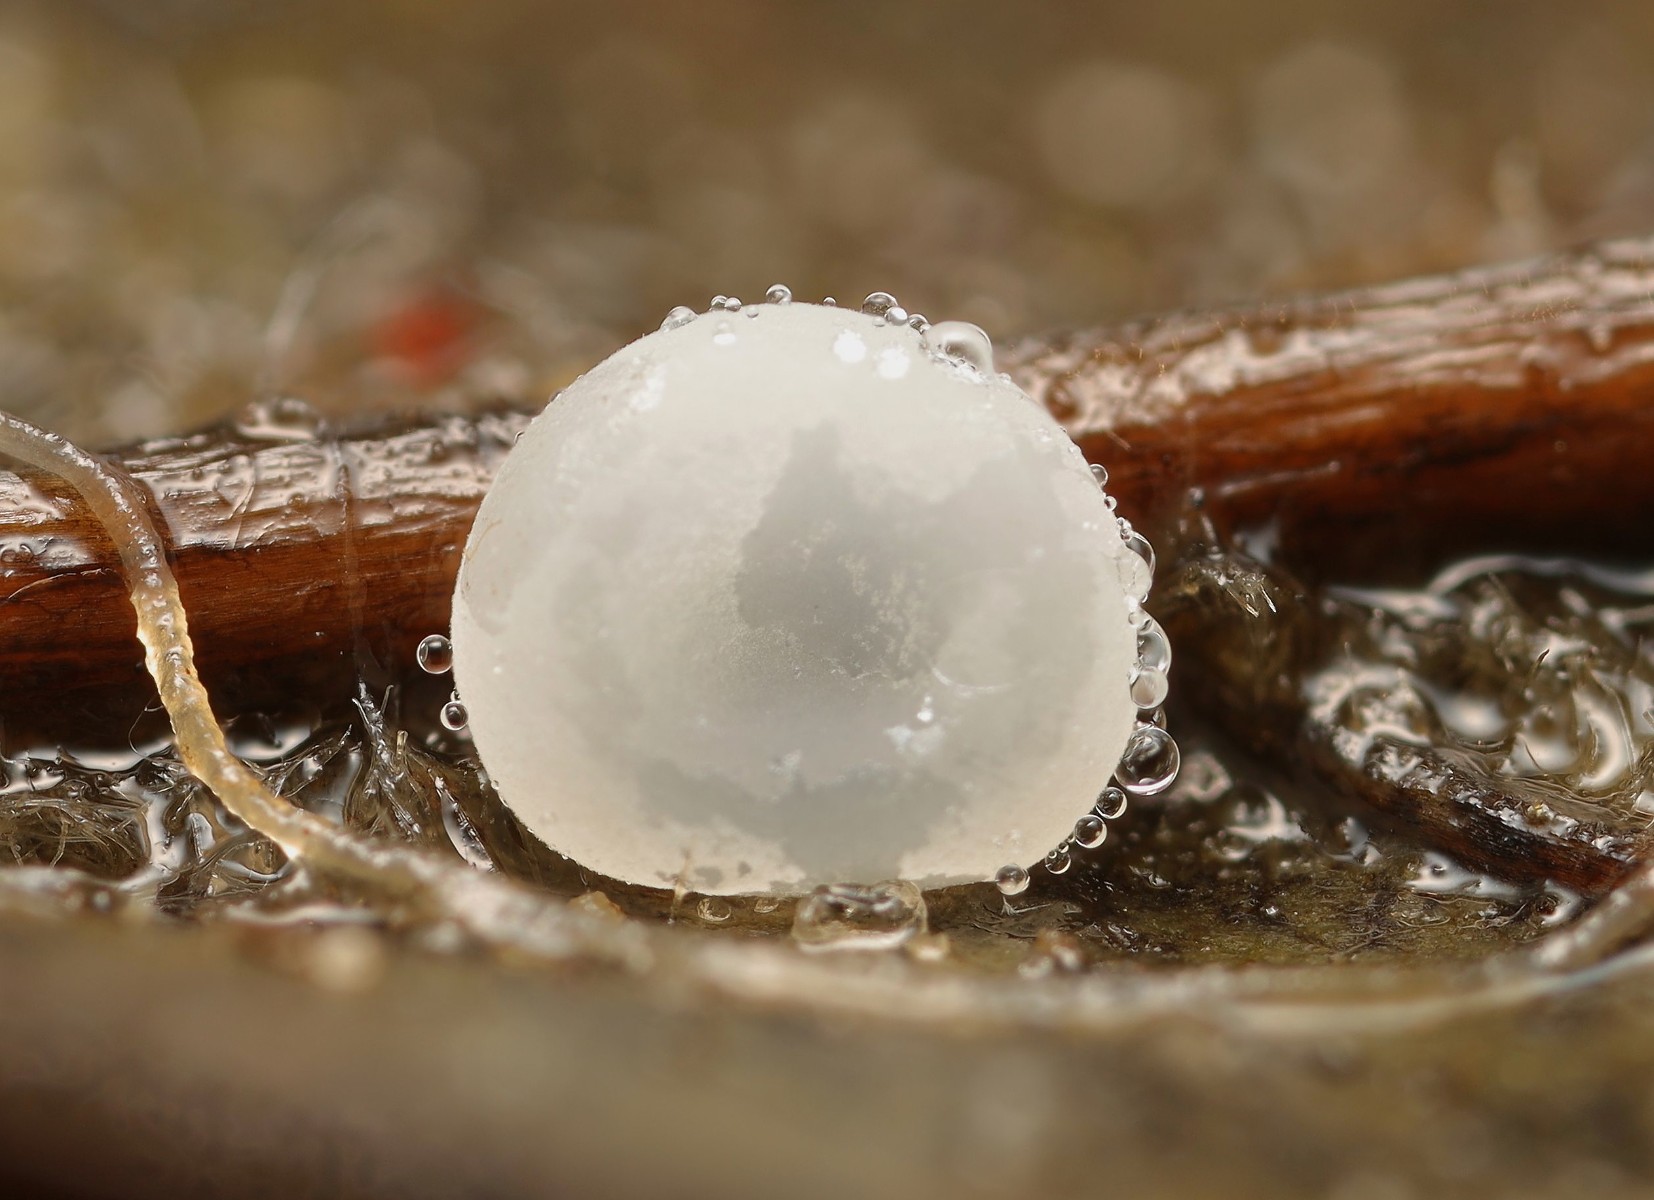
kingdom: Fungi
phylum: Basidiomycota
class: Agaricomycetes
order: Agaricales
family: Typhulaceae
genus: Sclerotium
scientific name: Sclerotium
